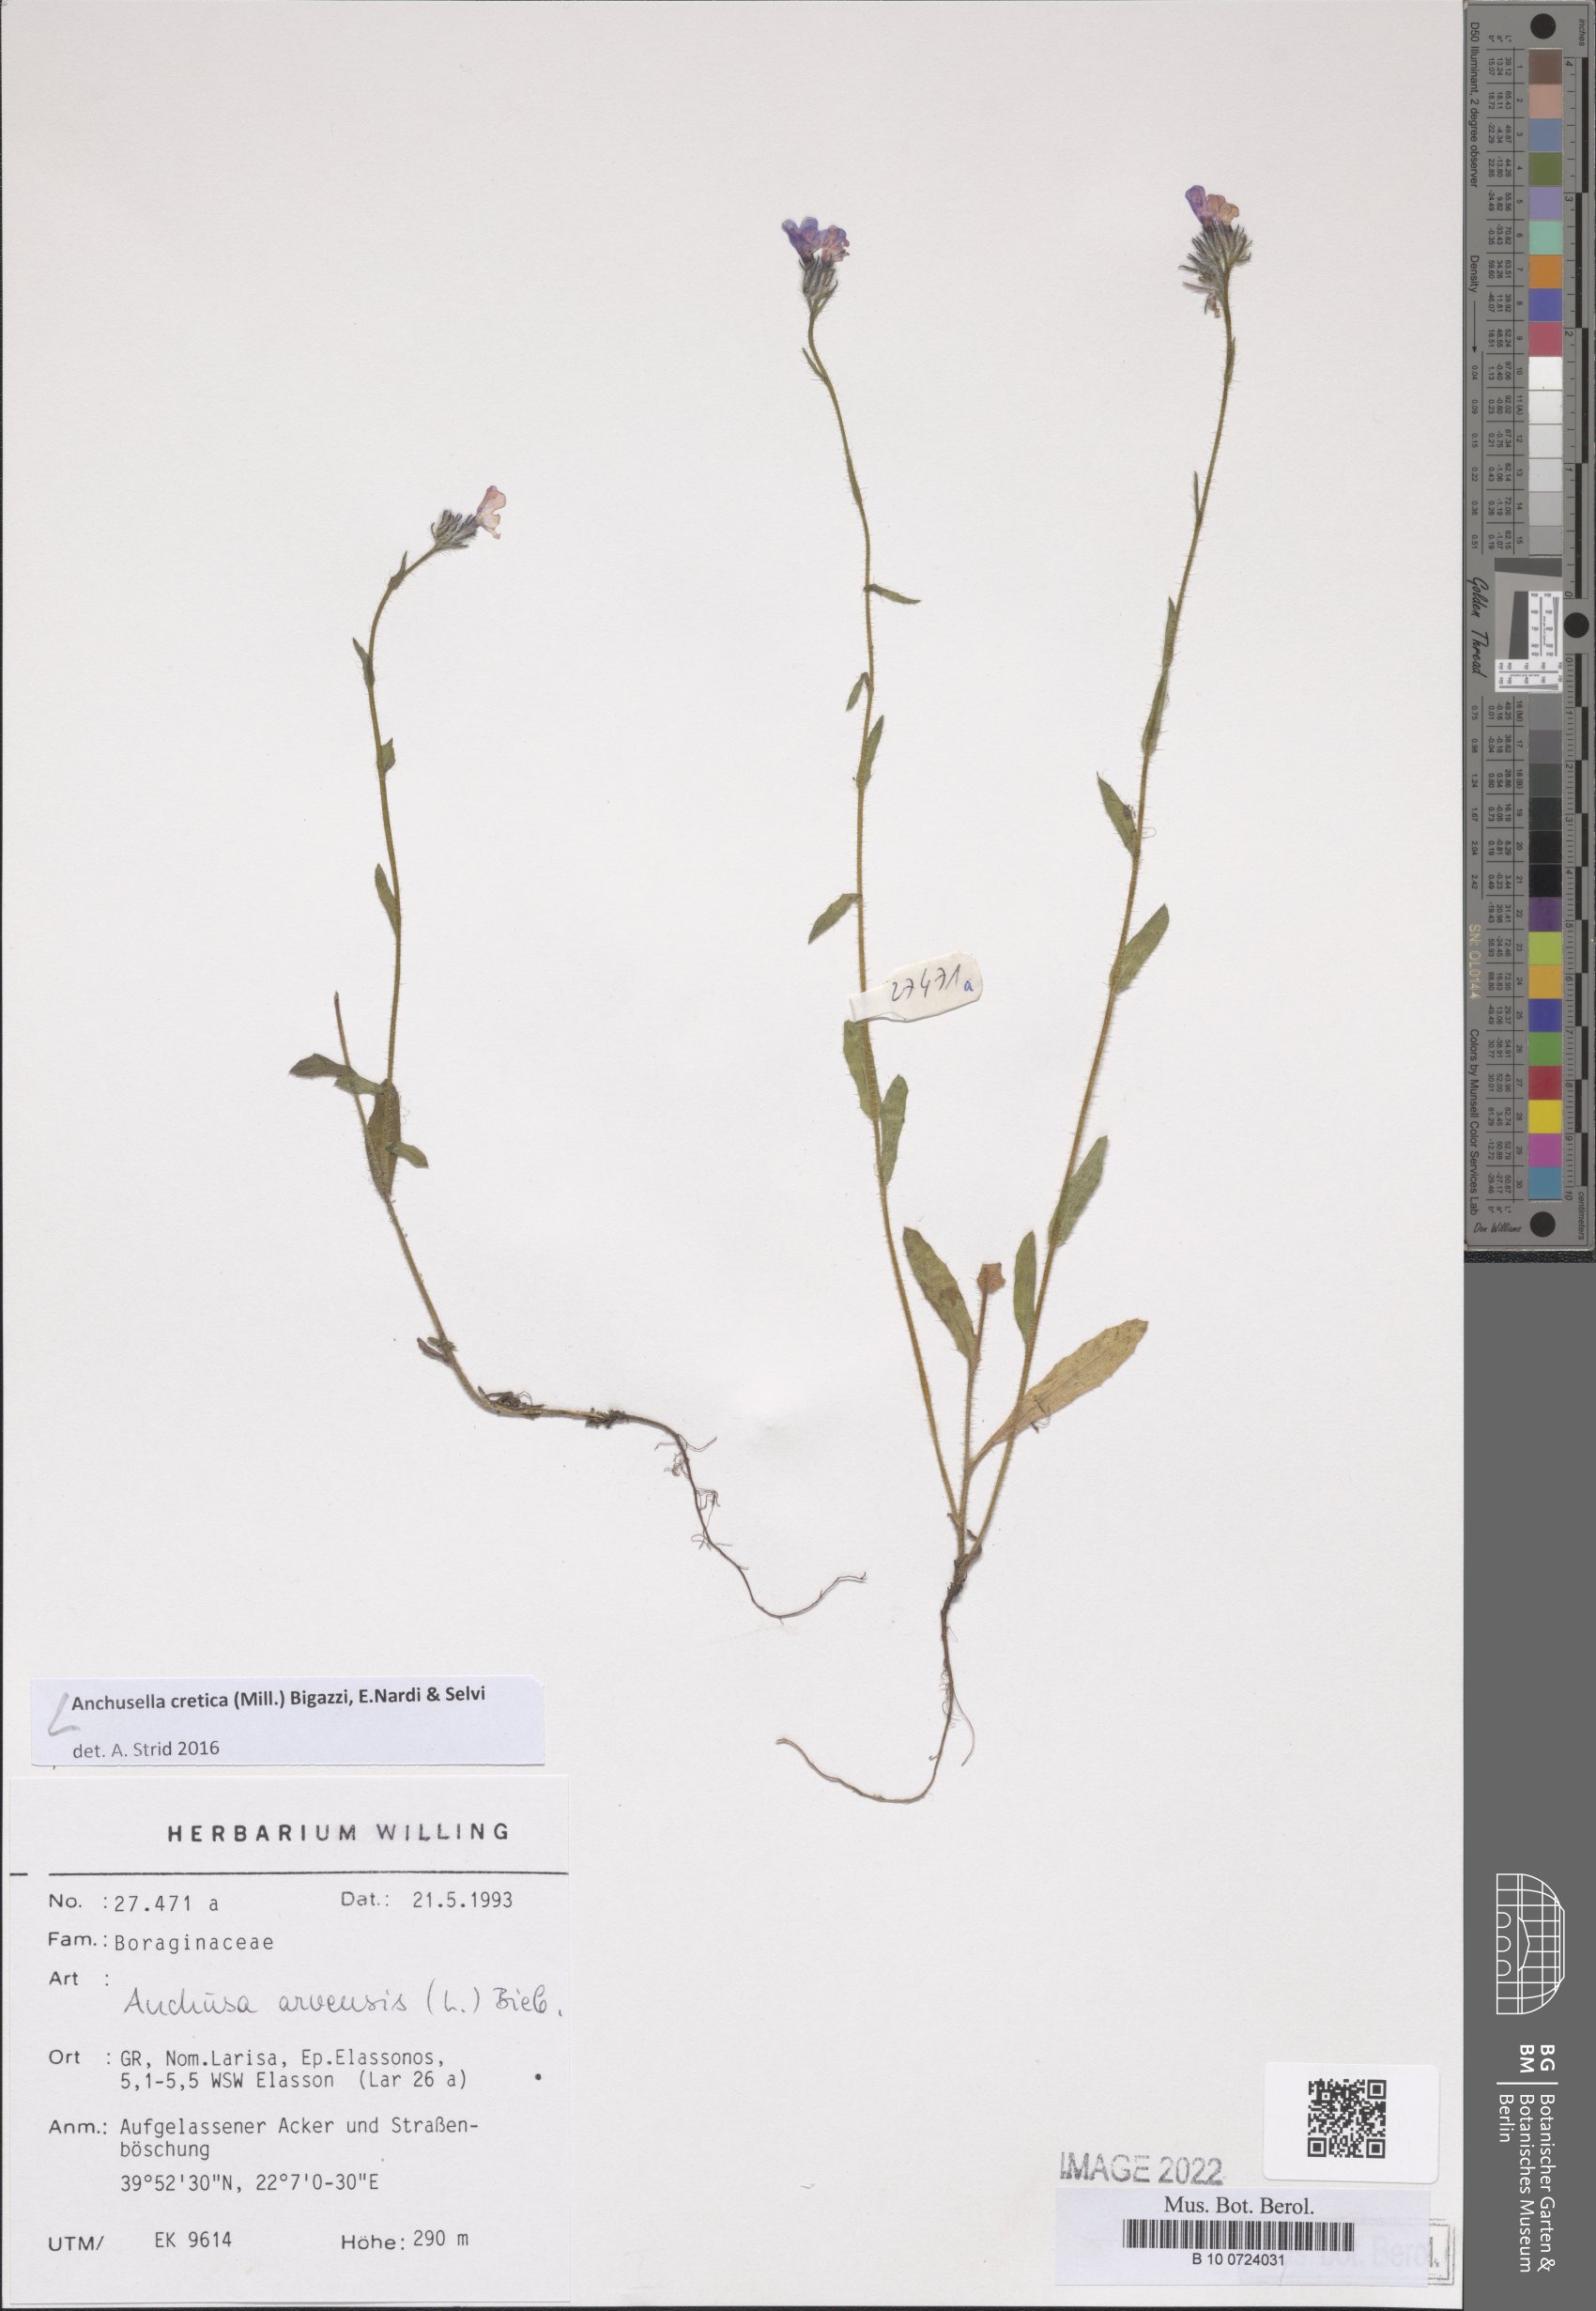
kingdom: Plantae
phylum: Tracheophyta
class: Magnoliopsida
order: Boraginales
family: Boraginaceae
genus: Anchusella
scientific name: Anchusella cretica
